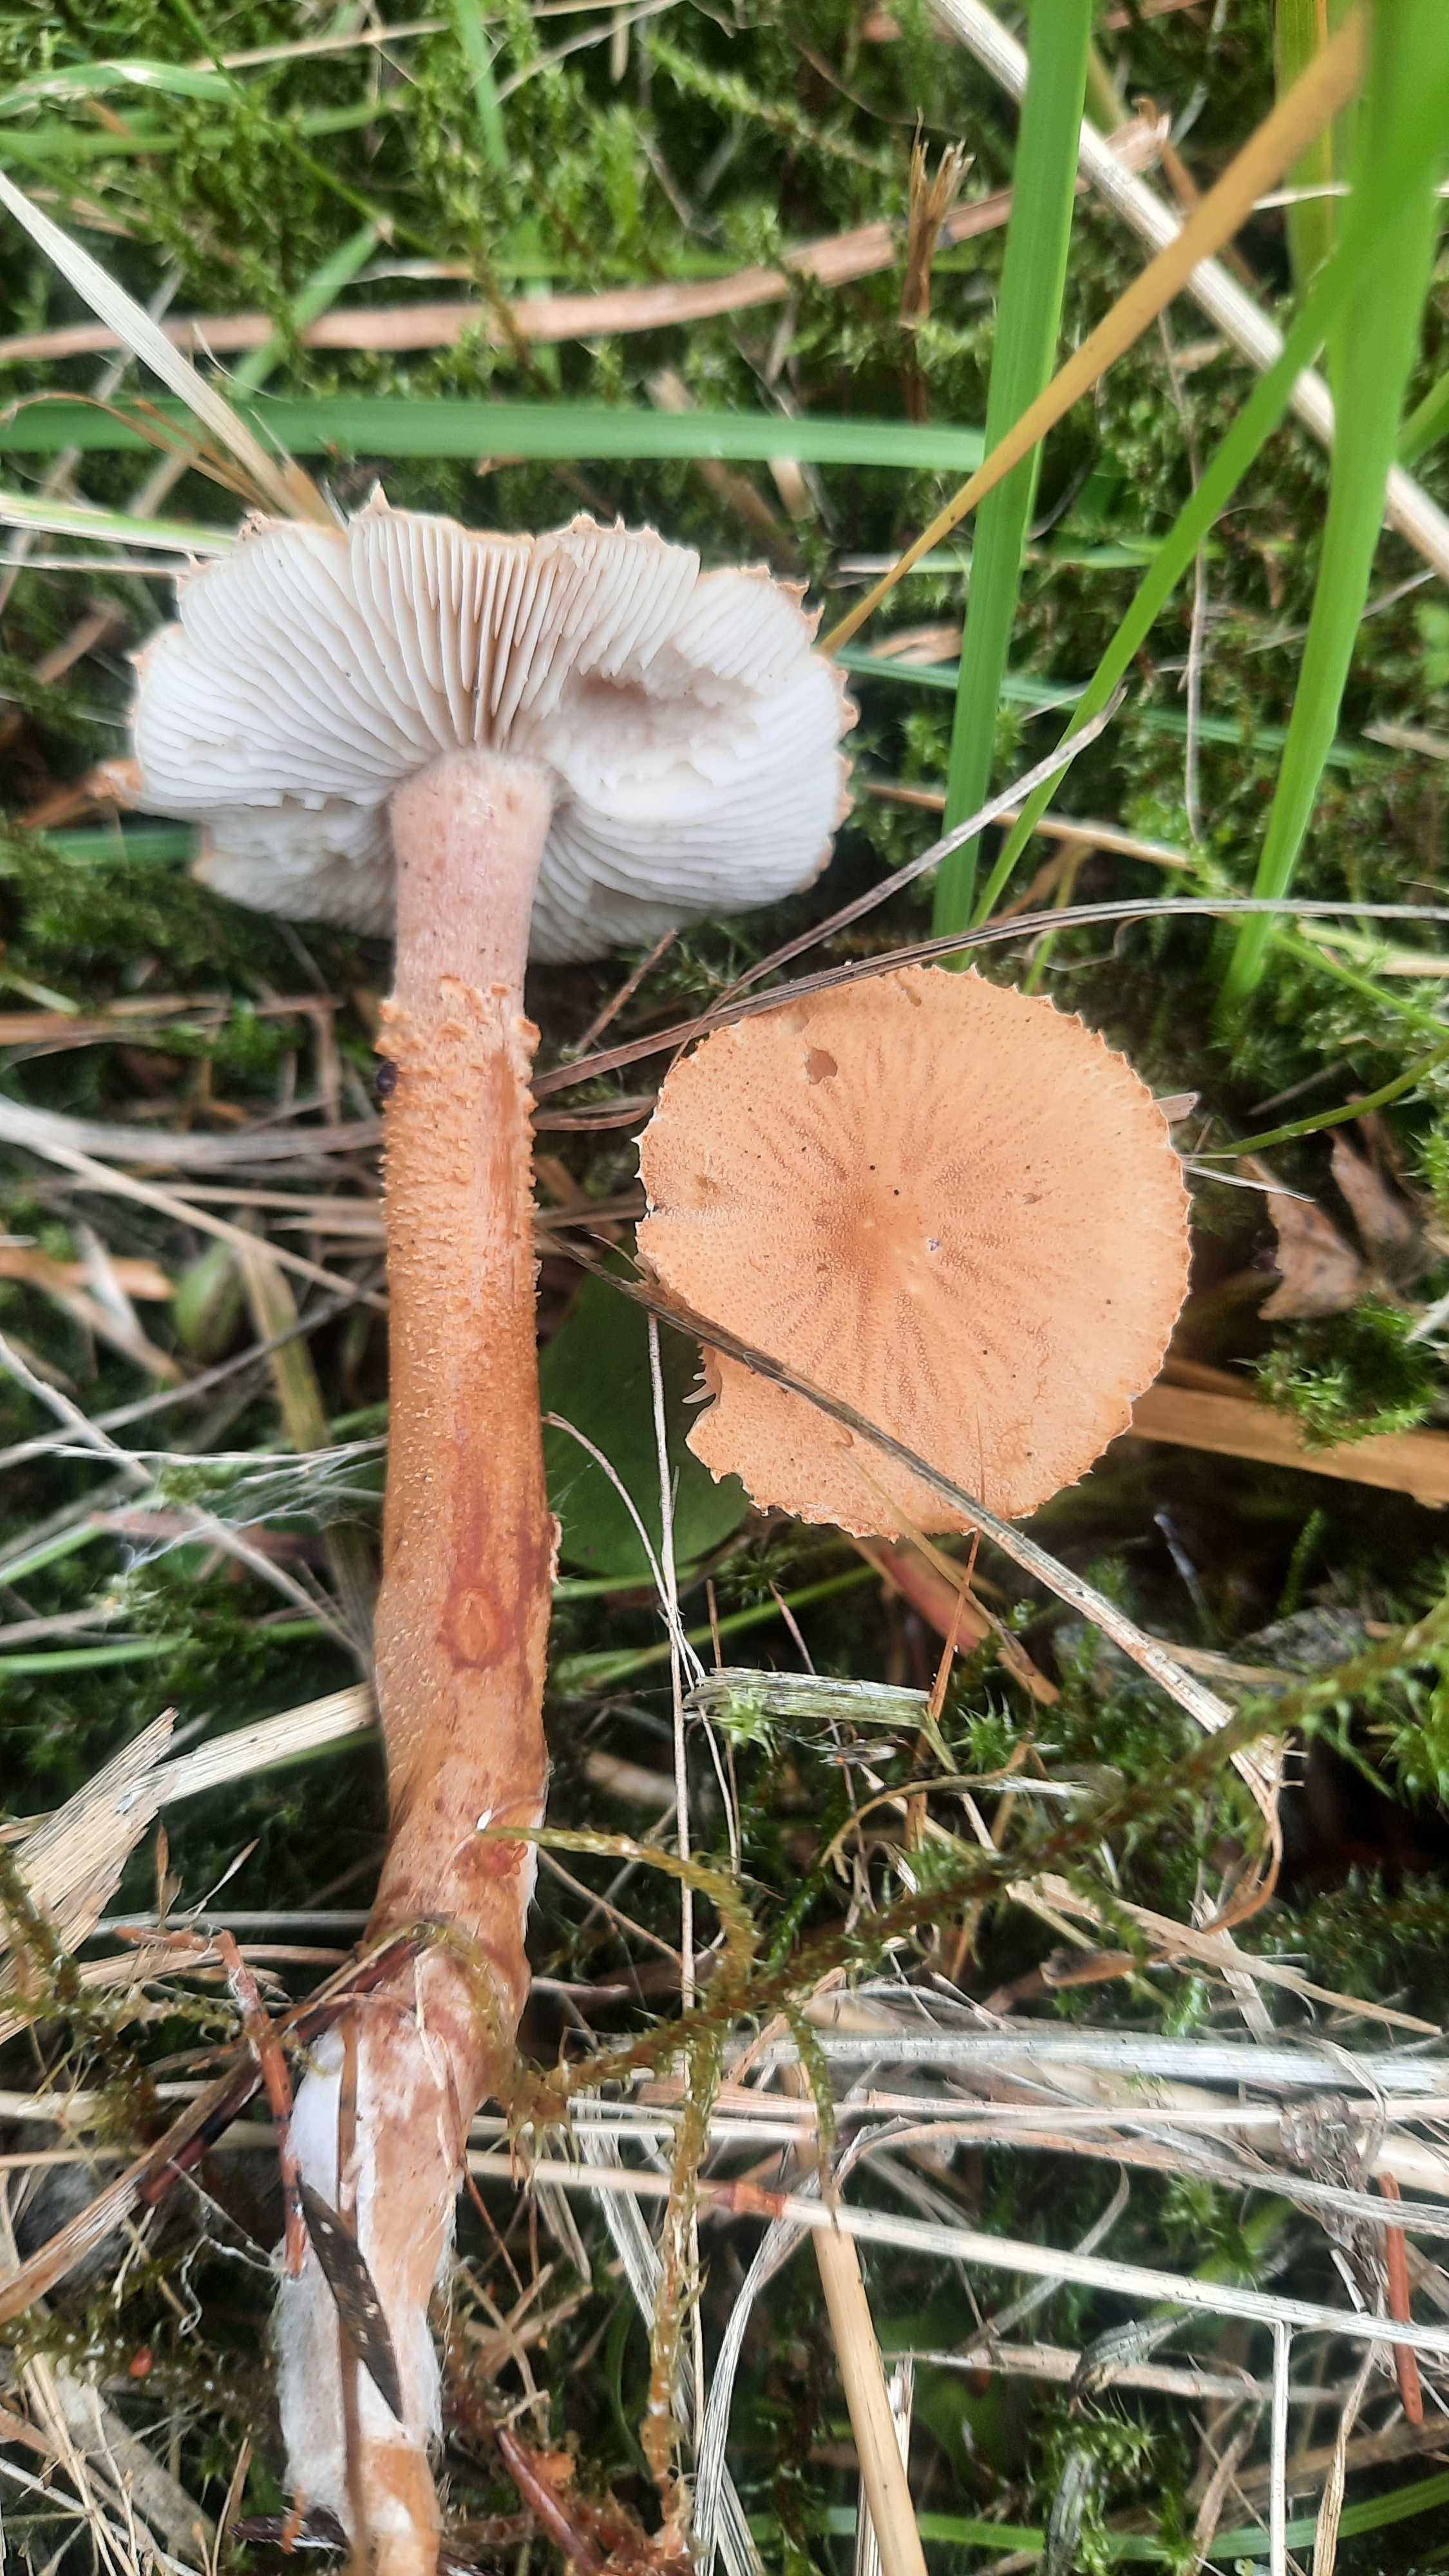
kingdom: Fungi
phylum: Basidiomycota
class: Agaricomycetes
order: Agaricales
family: Tricholomataceae
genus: Cystoderma
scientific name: Cystoderma amianthinum
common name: okkergul grynhat
